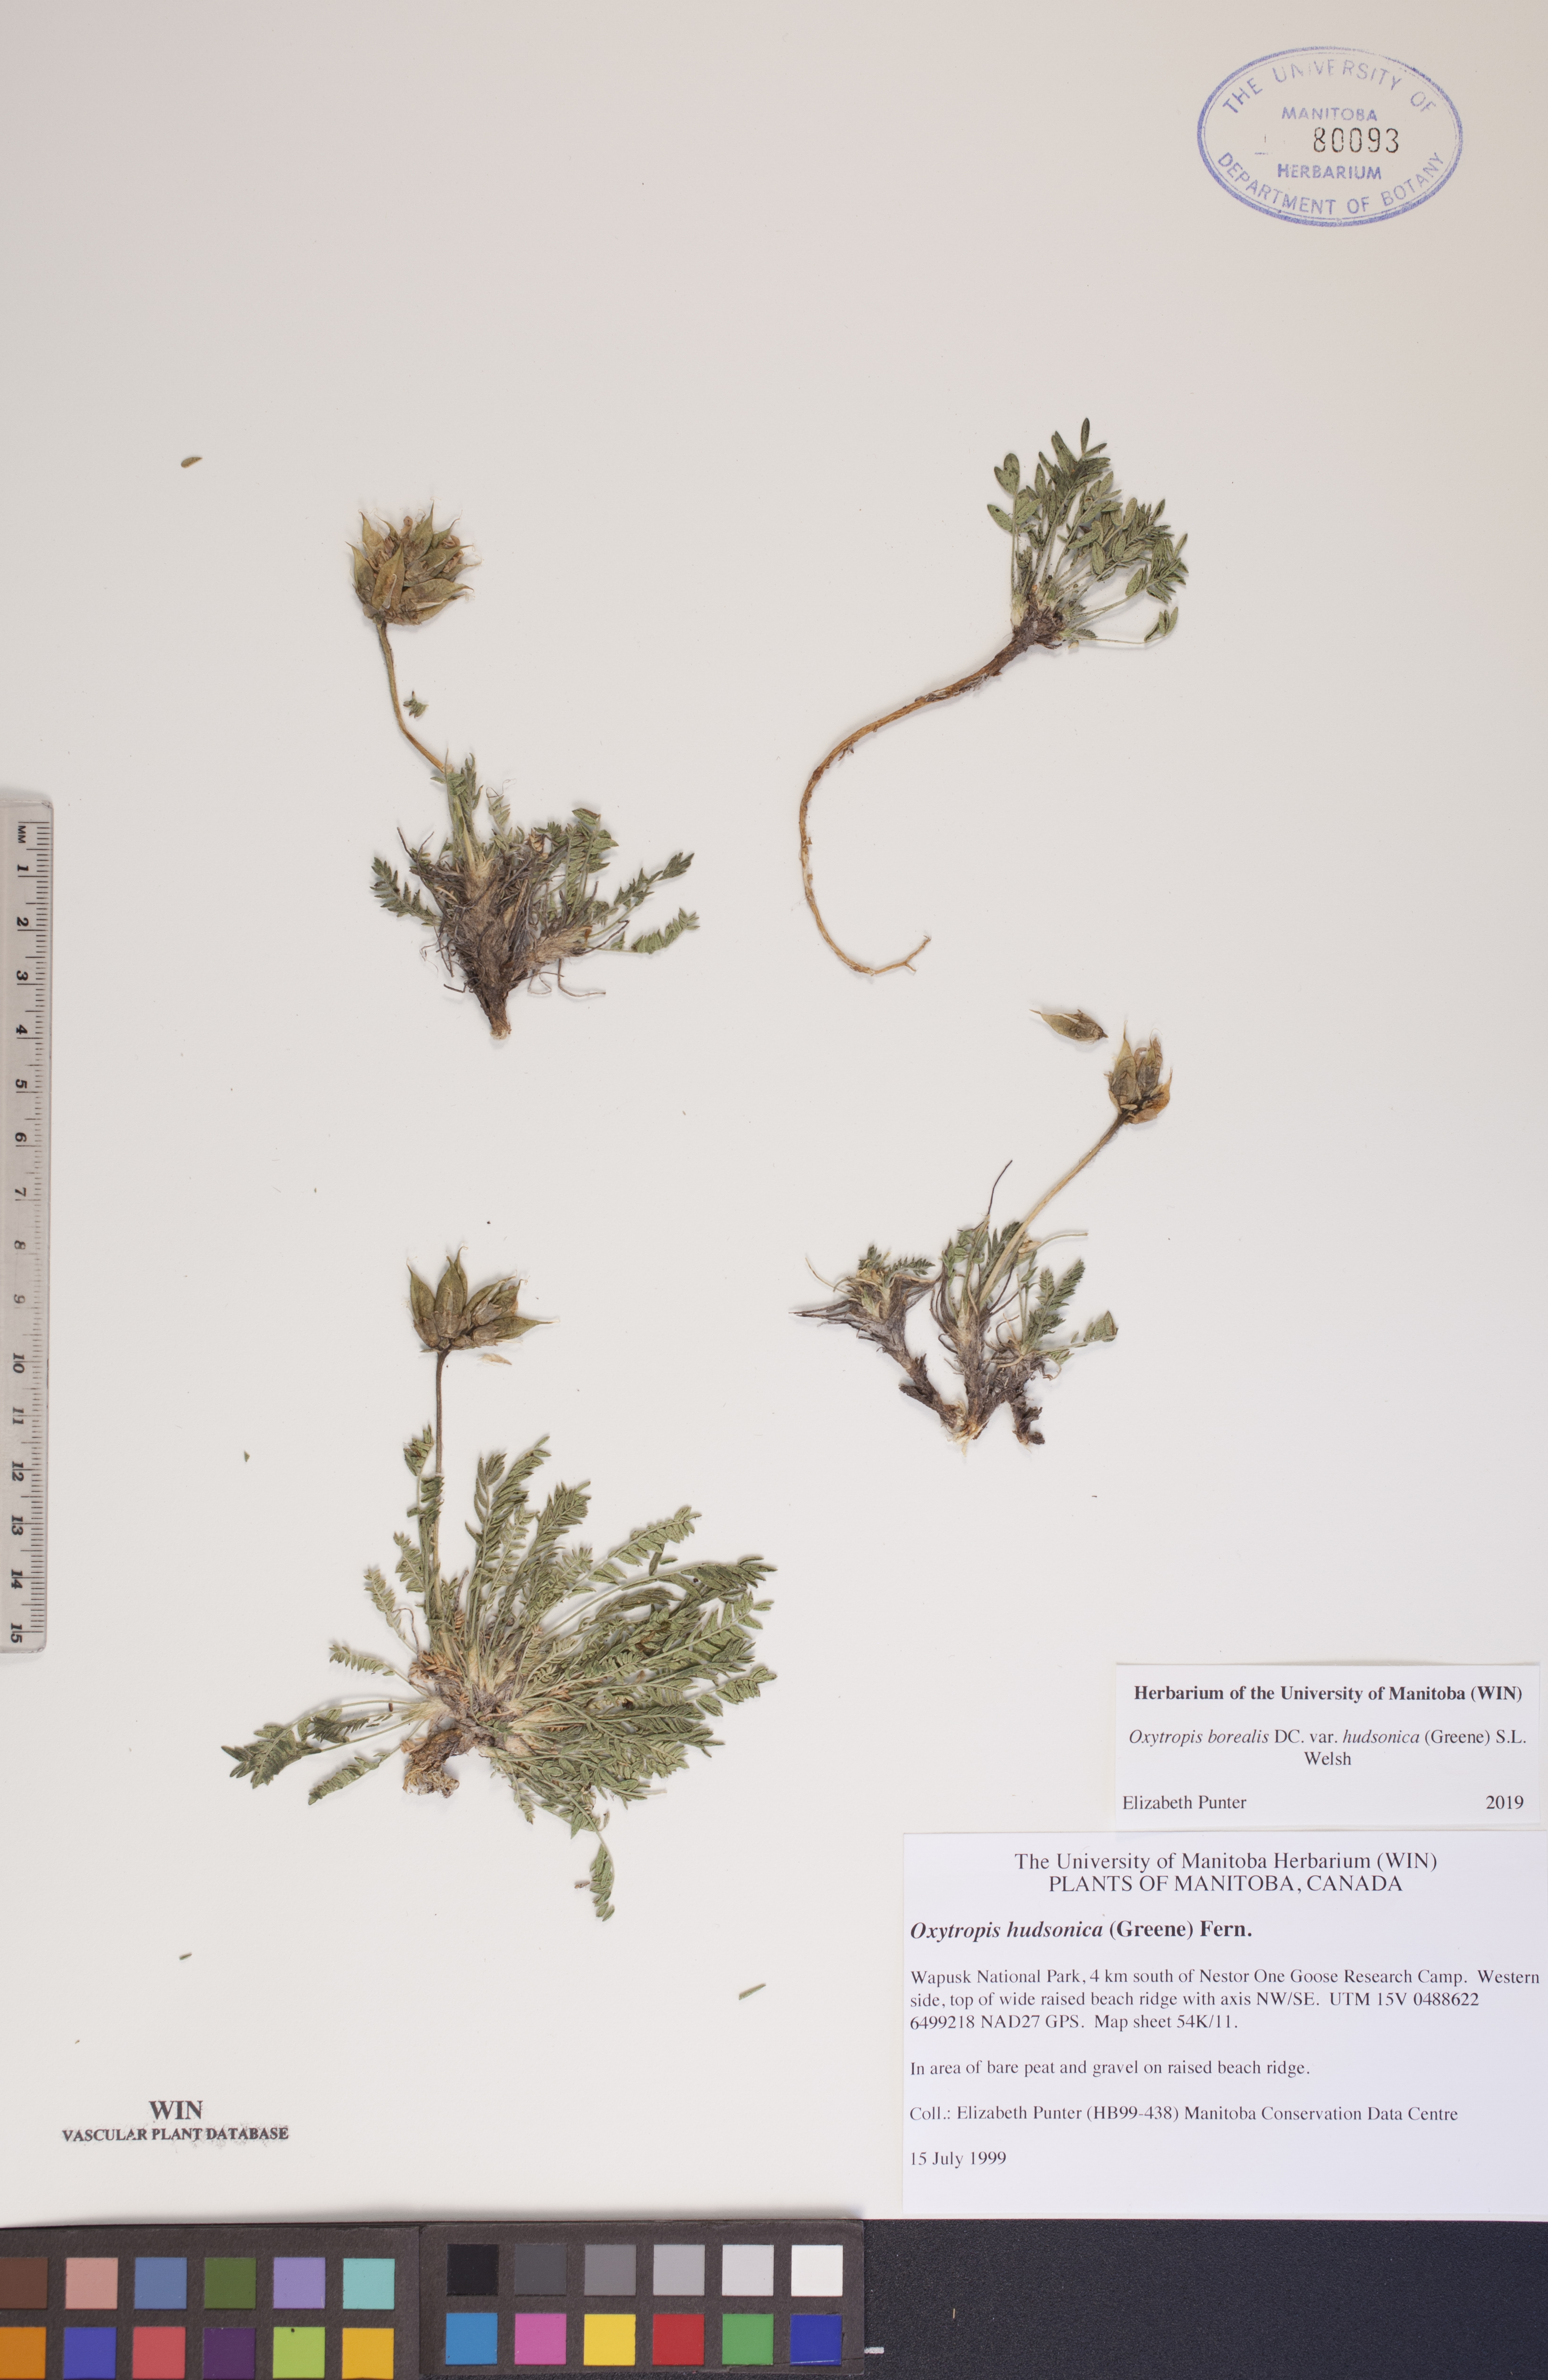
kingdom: Plantae
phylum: Tracheophyta
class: Magnoliopsida
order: Fabales
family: Fabaceae
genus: Oxytropis
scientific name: Oxytropis hudsonica
